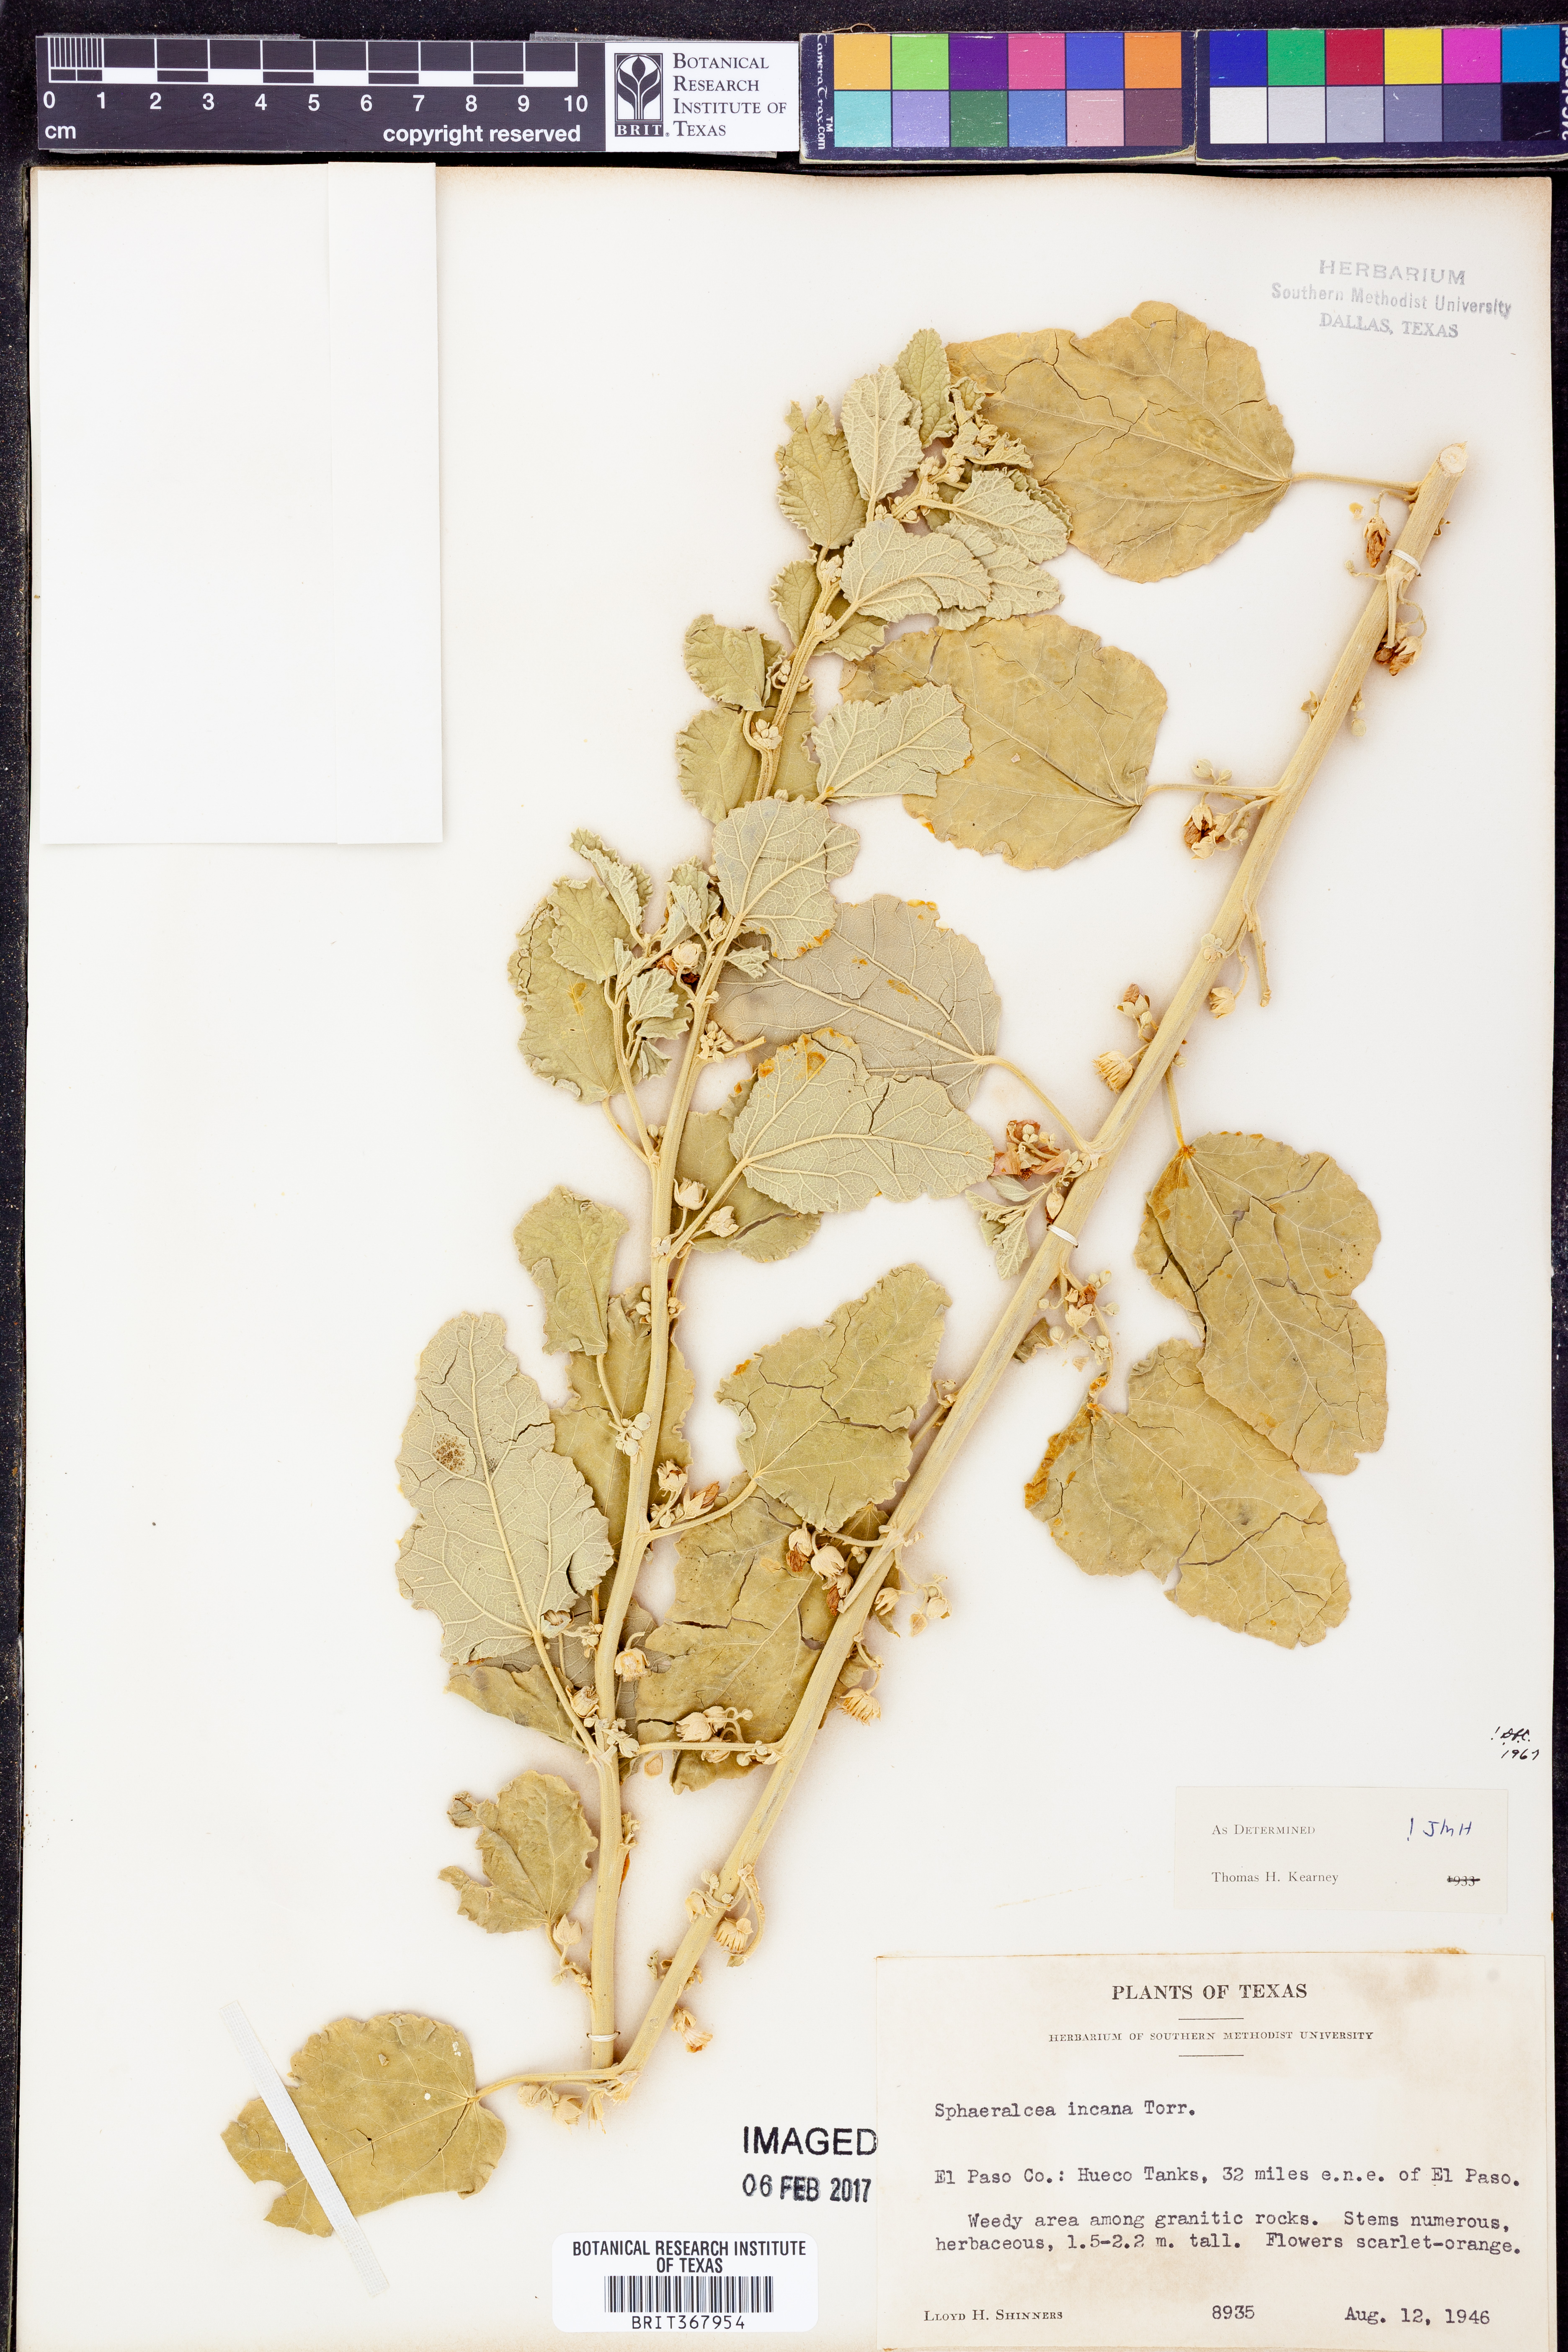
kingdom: Plantae
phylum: Tracheophyta
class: Magnoliopsida
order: Malvales
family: Malvaceae
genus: Sphaeralcea
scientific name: Sphaeralcea incana
